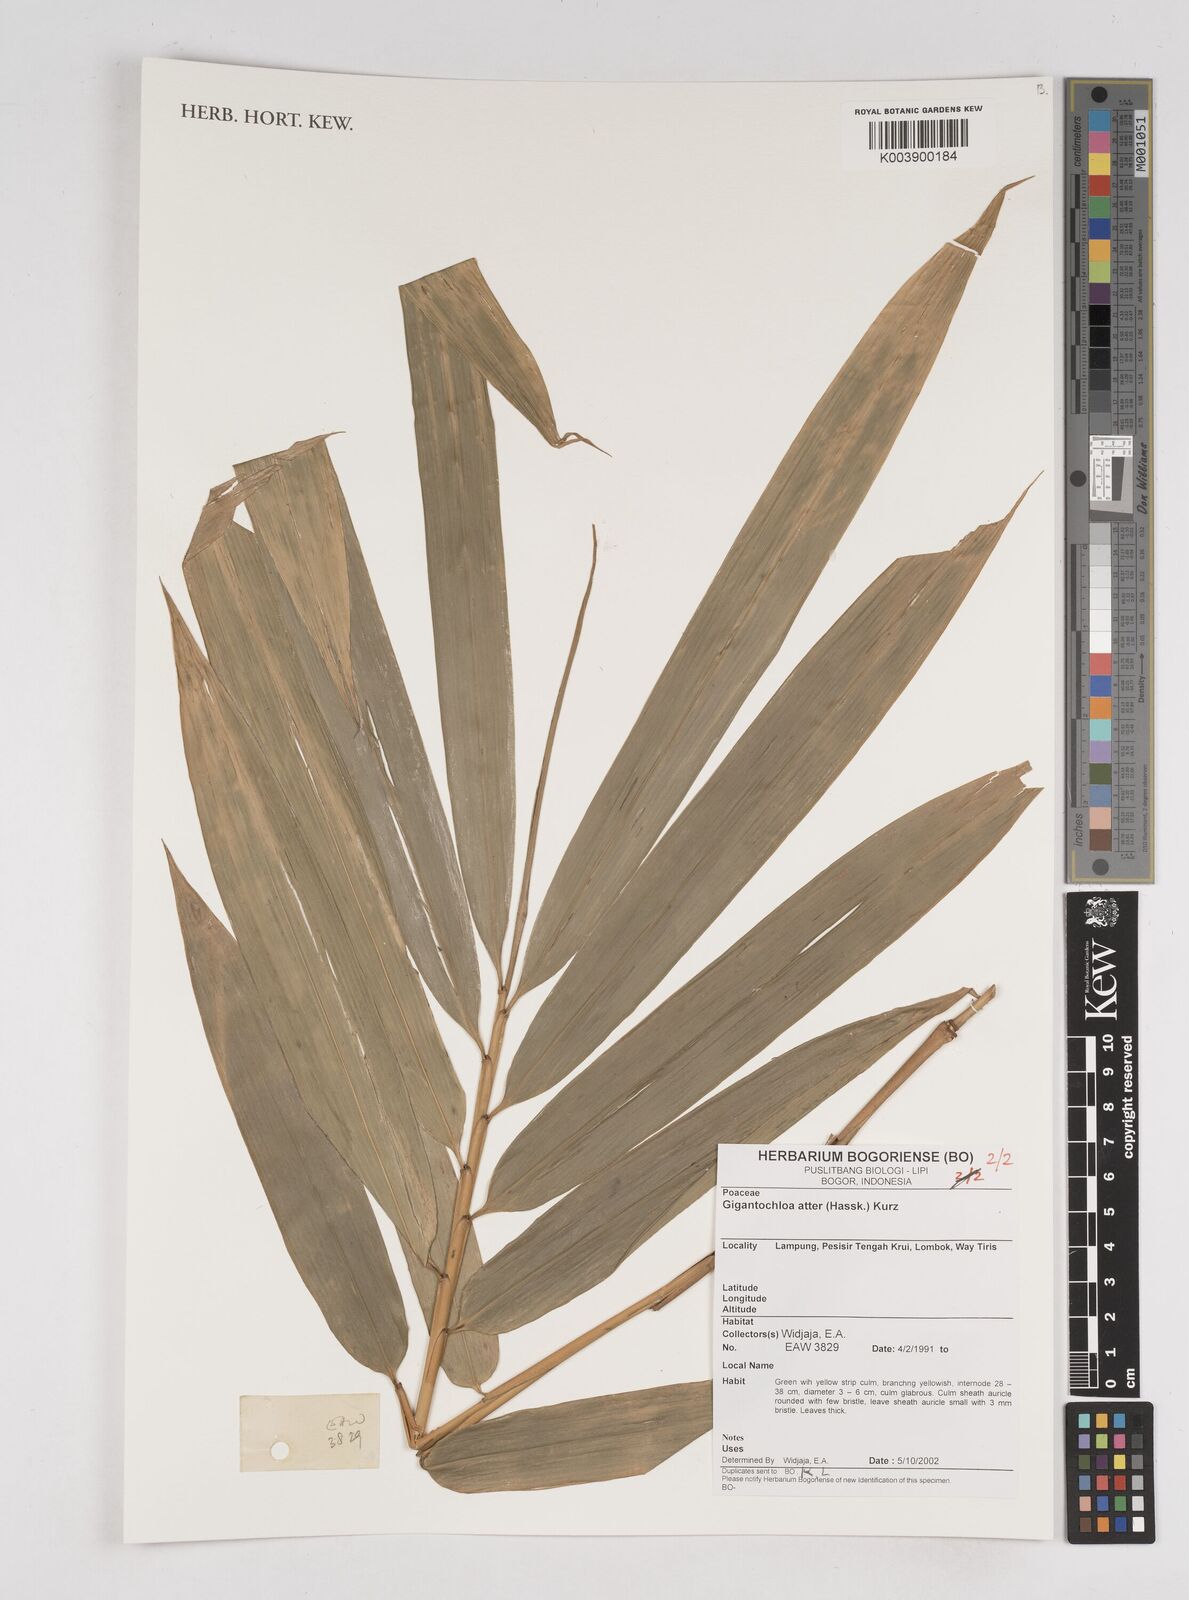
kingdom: Plantae
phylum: Tracheophyta
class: Liliopsida
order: Poales
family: Poaceae
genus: Gigantochloa
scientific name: Gigantochloa atter
